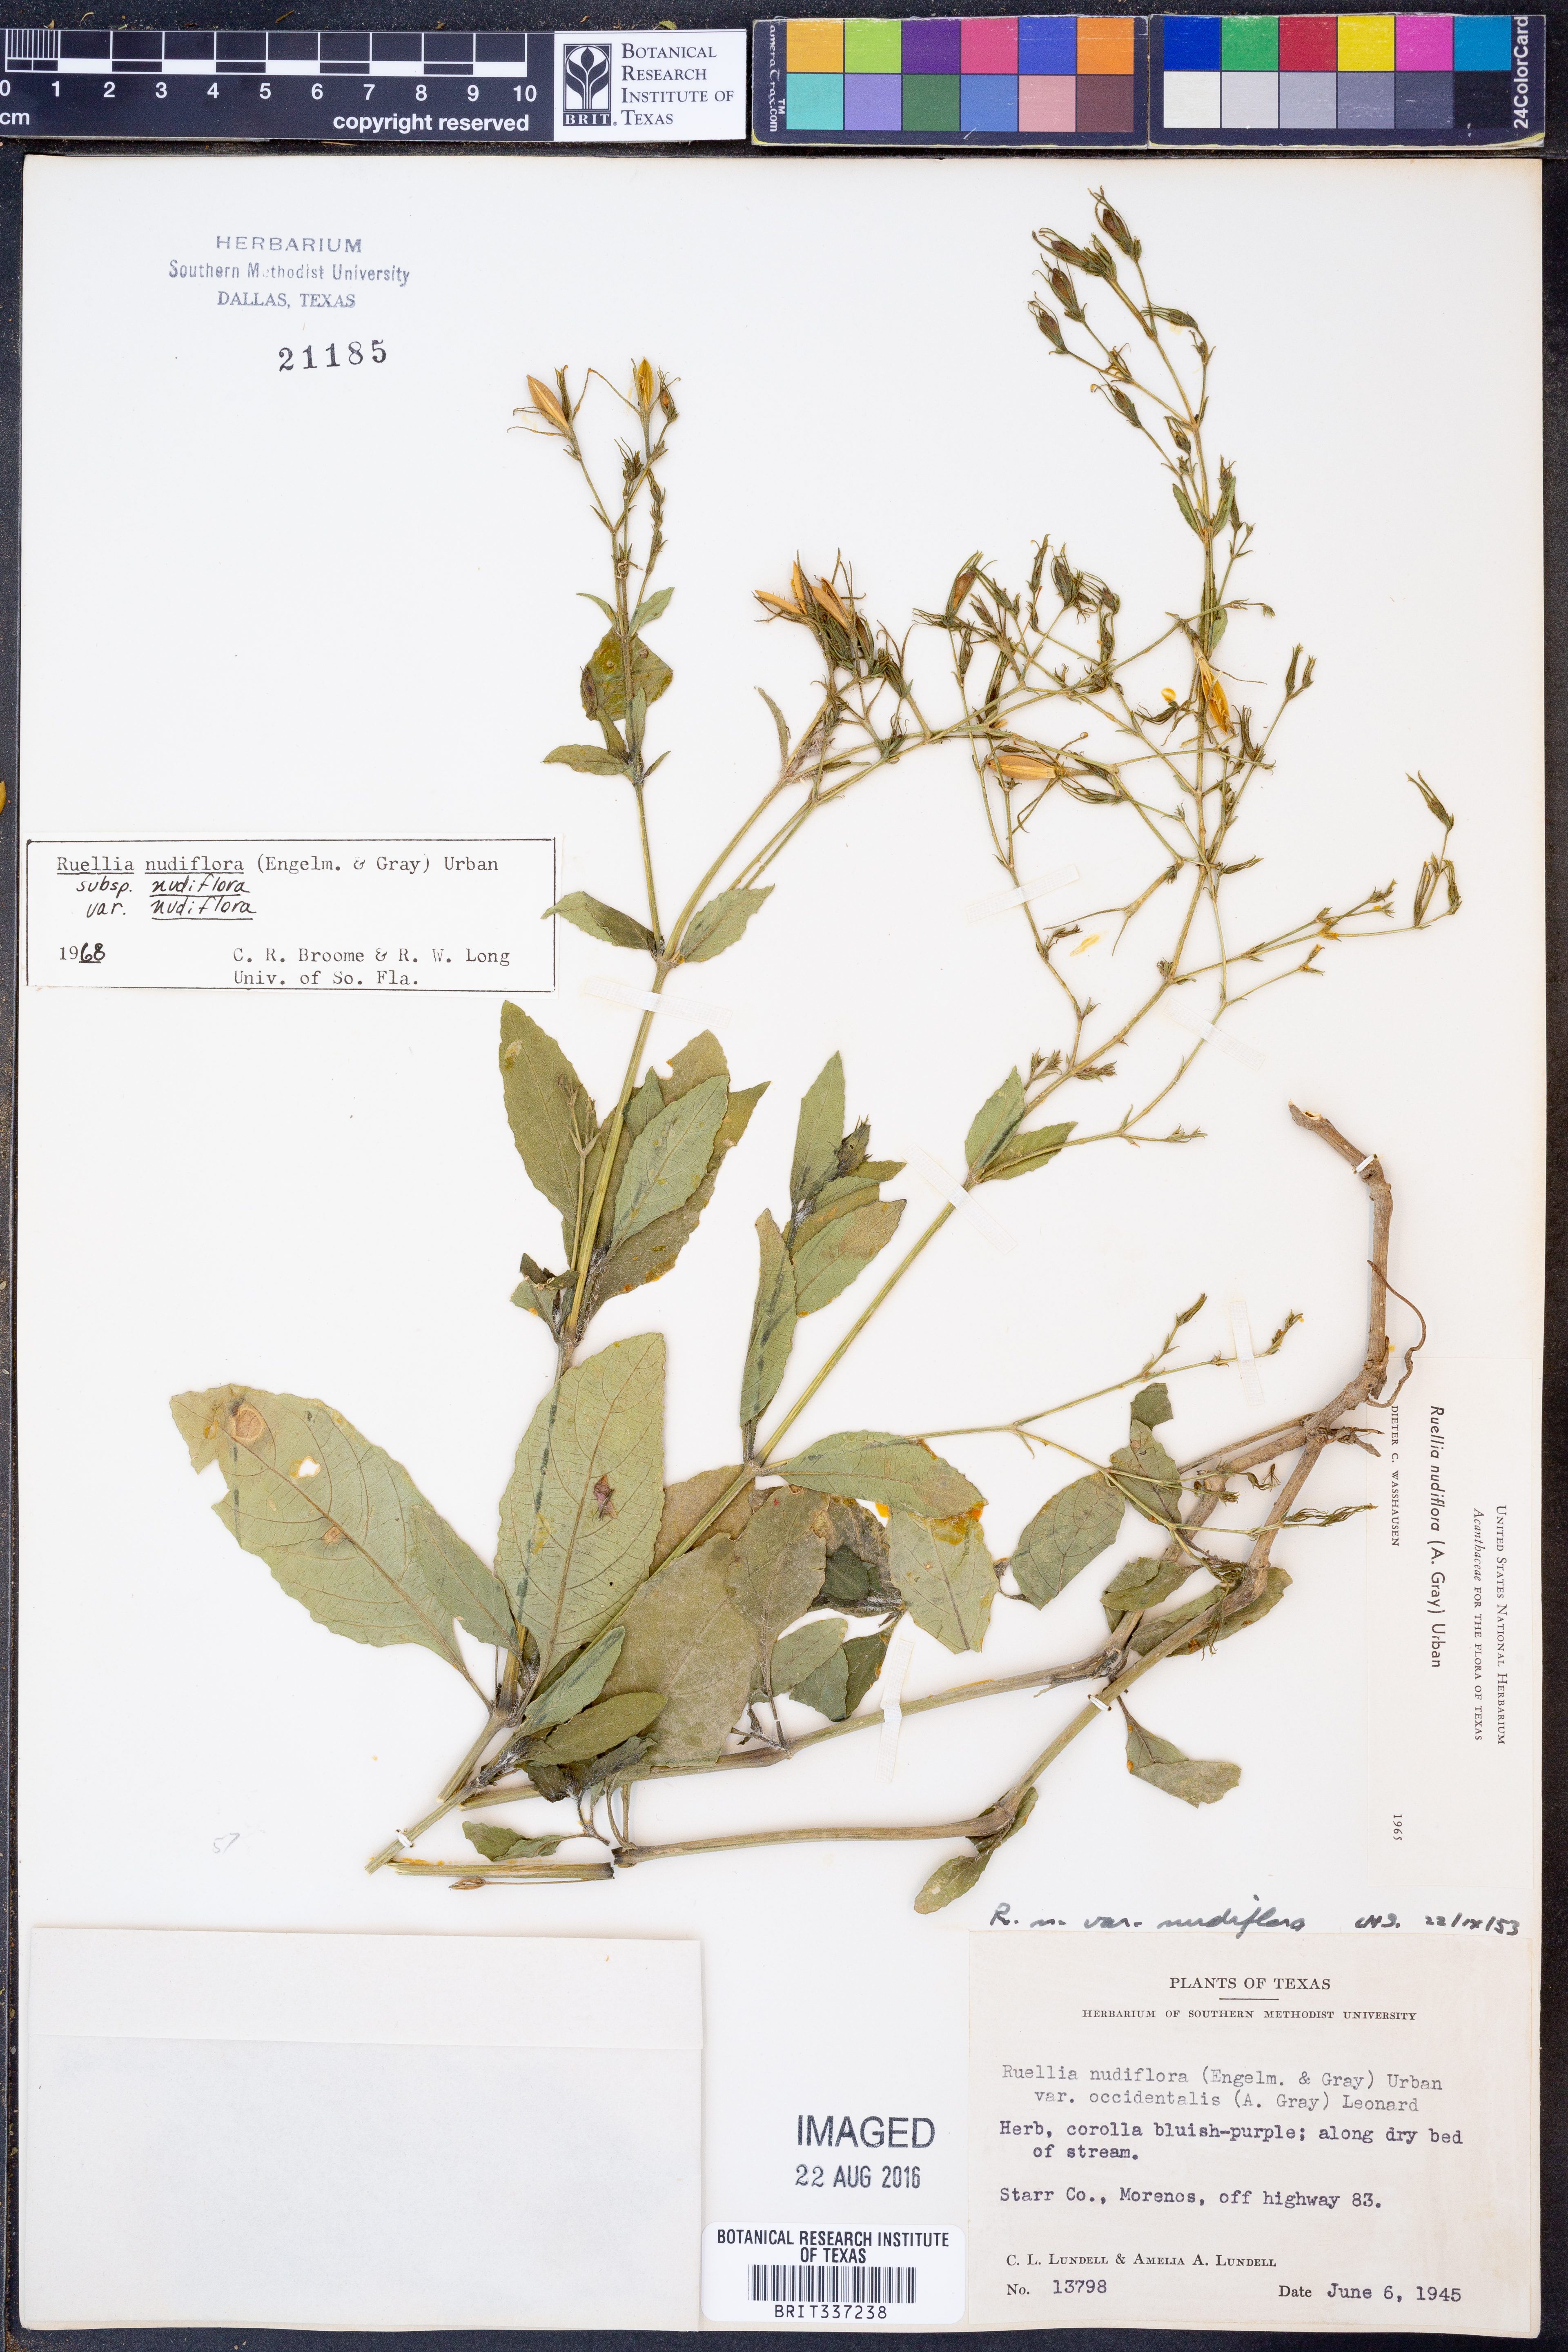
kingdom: Plantae
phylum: Tracheophyta
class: Magnoliopsida
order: Lamiales
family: Acanthaceae
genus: Ruellia
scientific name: Ruellia ciliatiflora
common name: Hairyflower wild petunia
